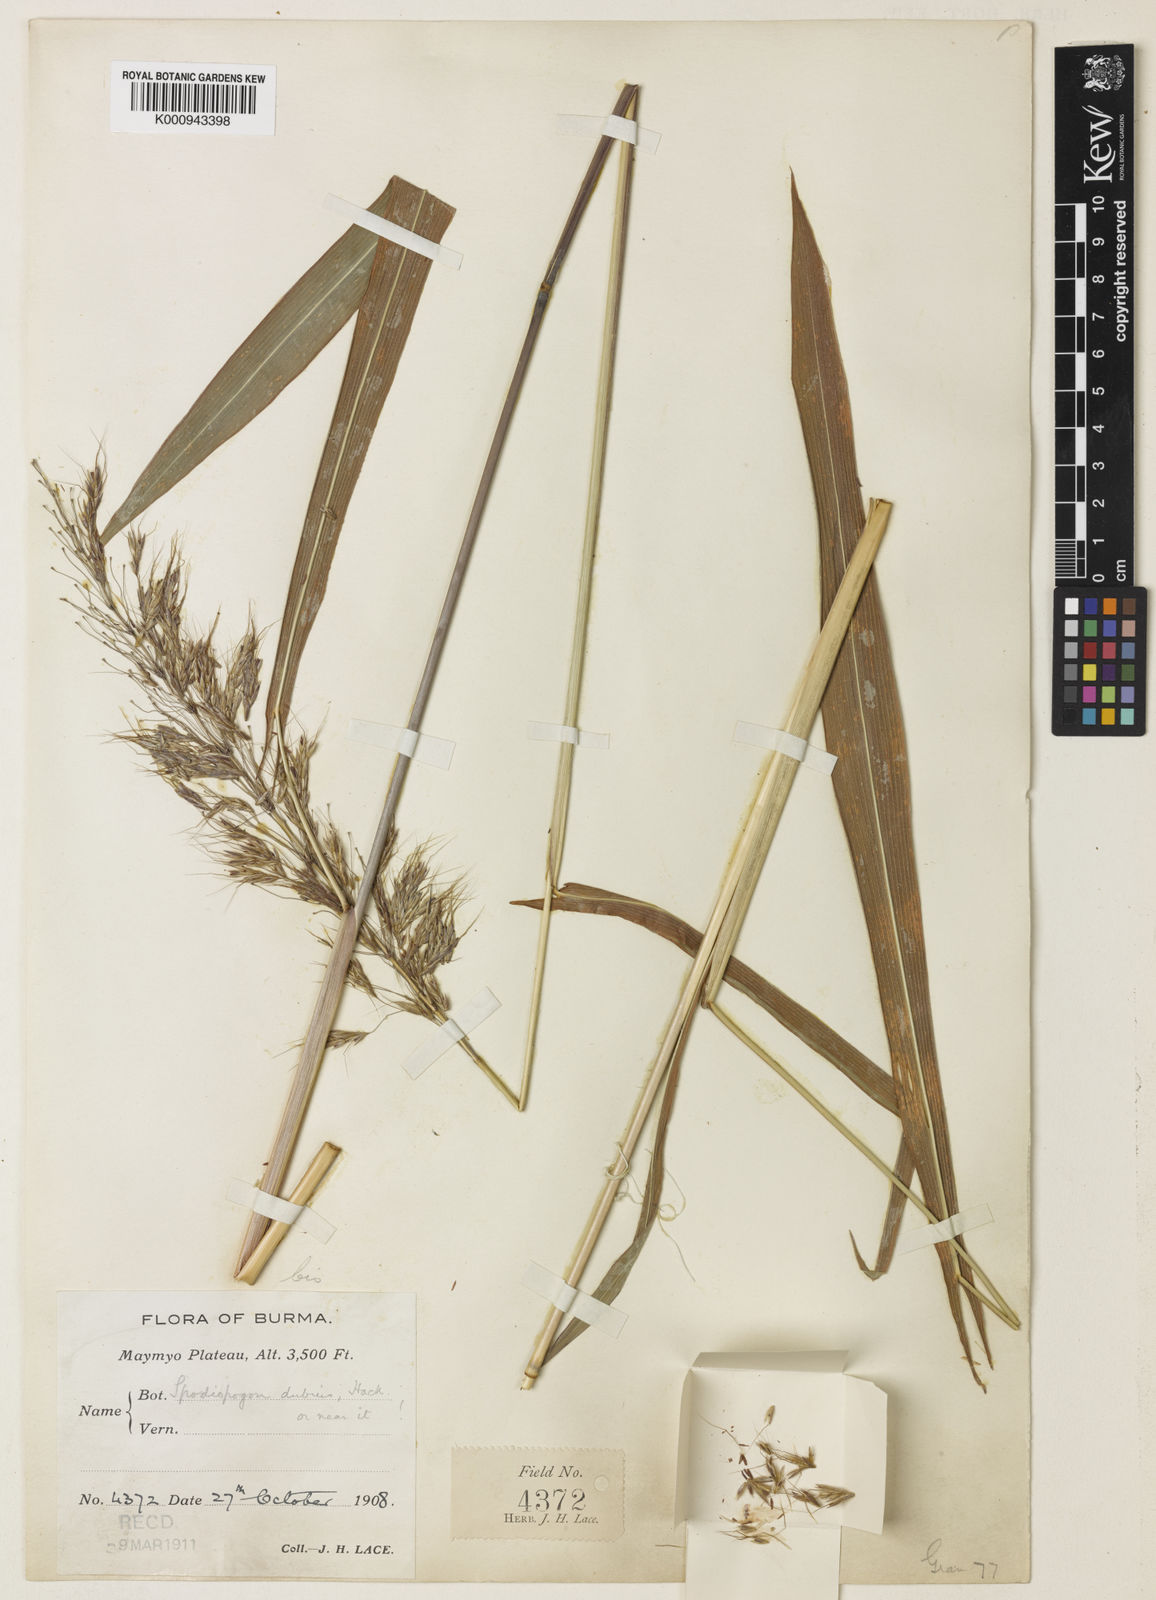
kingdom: Plantae
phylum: Tracheophyta
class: Liliopsida
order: Poales
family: Poaceae
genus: Spodiopogon
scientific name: Spodiopogon jainii
